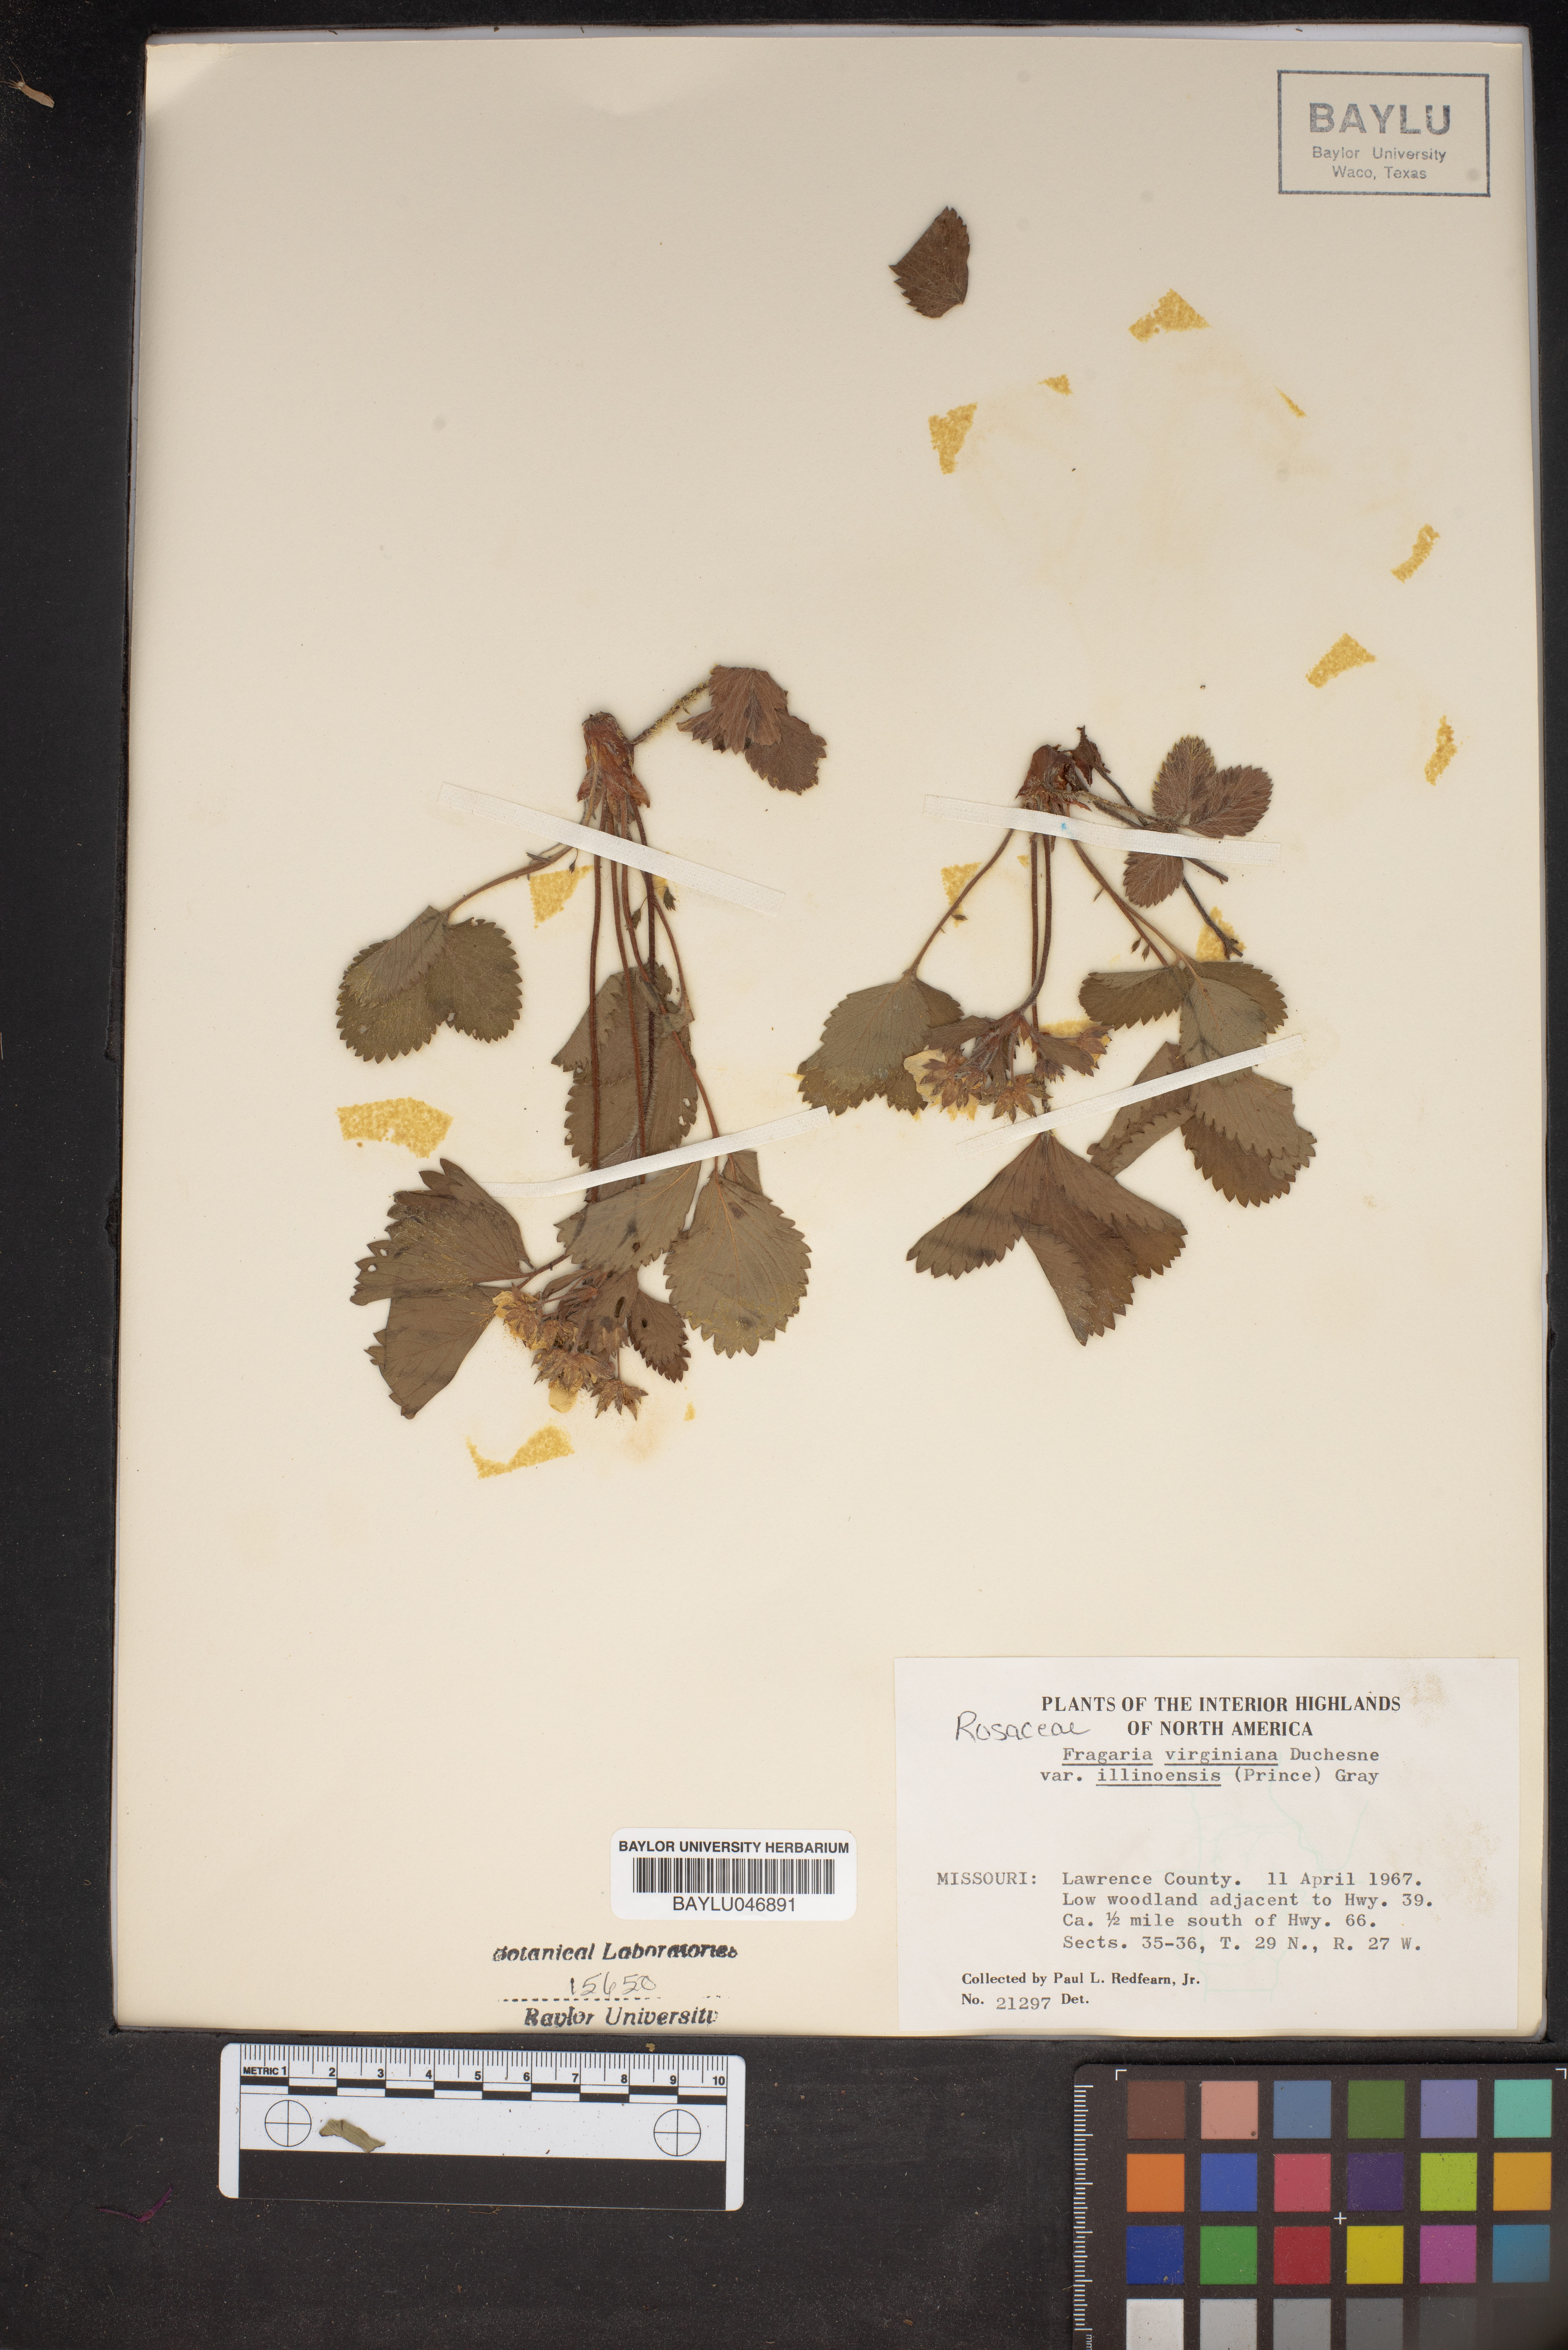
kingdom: Plantae
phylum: Tracheophyta
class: Magnoliopsida
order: Rosales
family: Rosaceae
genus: Fragaria
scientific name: Fragaria virginiana
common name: Thickleaved wild strawberry
